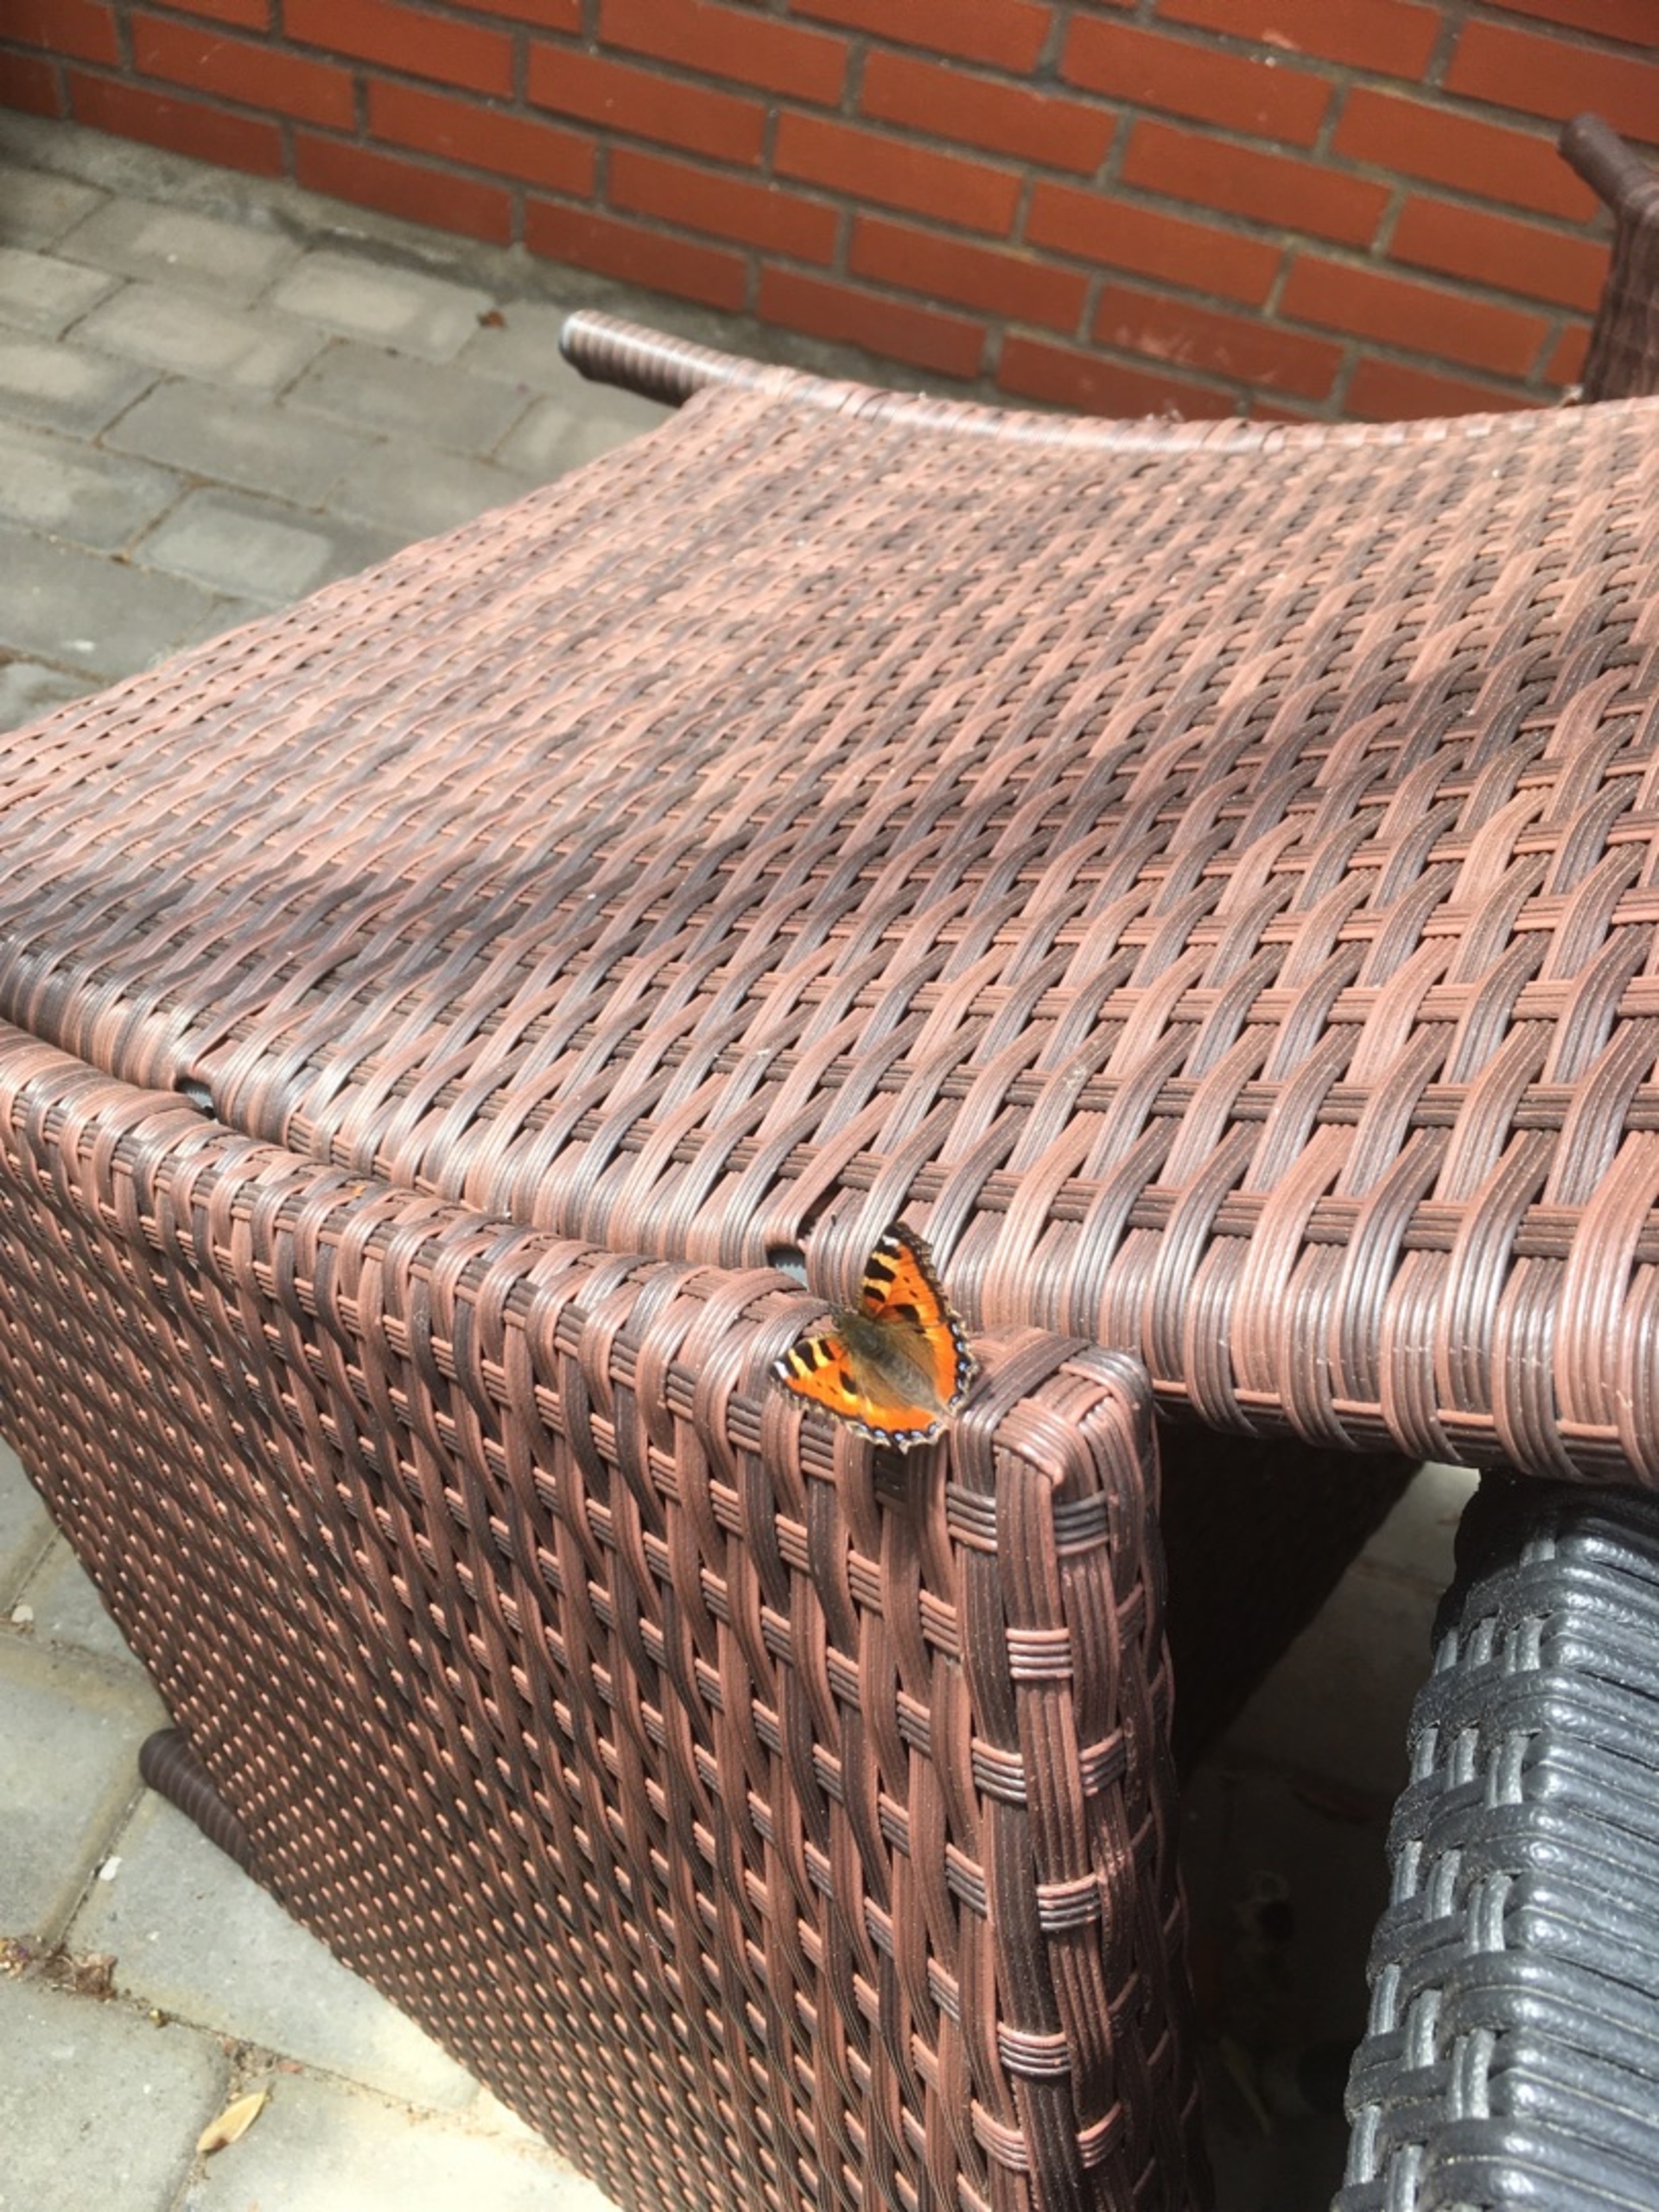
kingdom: Animalia
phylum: Arthropoda
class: Insecta
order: Lepidoptera
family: Nymphalidae
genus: Aglais
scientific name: Aglais urticae
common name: Nældens takvinge
